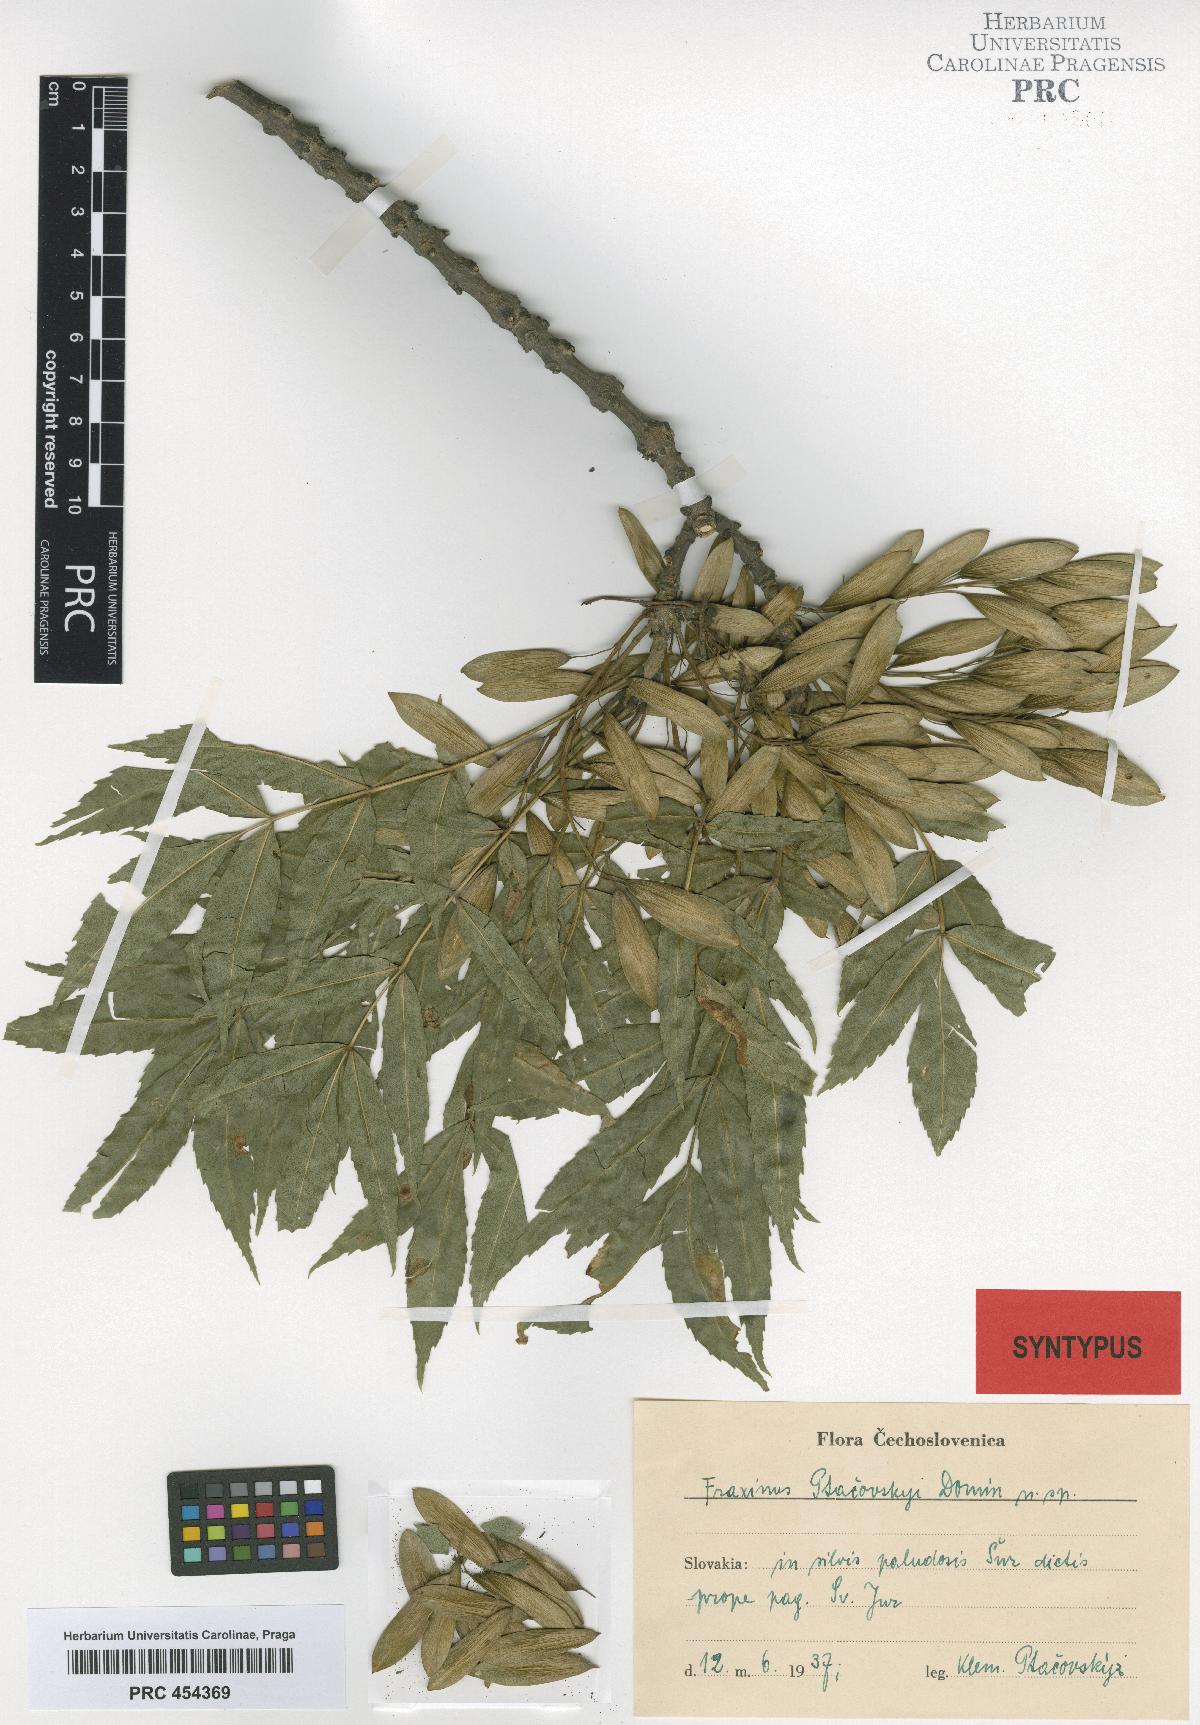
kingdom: Plantae
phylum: Tracheophyta
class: Magnoliopsida
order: Lamiales
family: Oleaceae
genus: Fraxinus
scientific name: Fraxinus angustifolia
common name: Narrow-leafed ash
